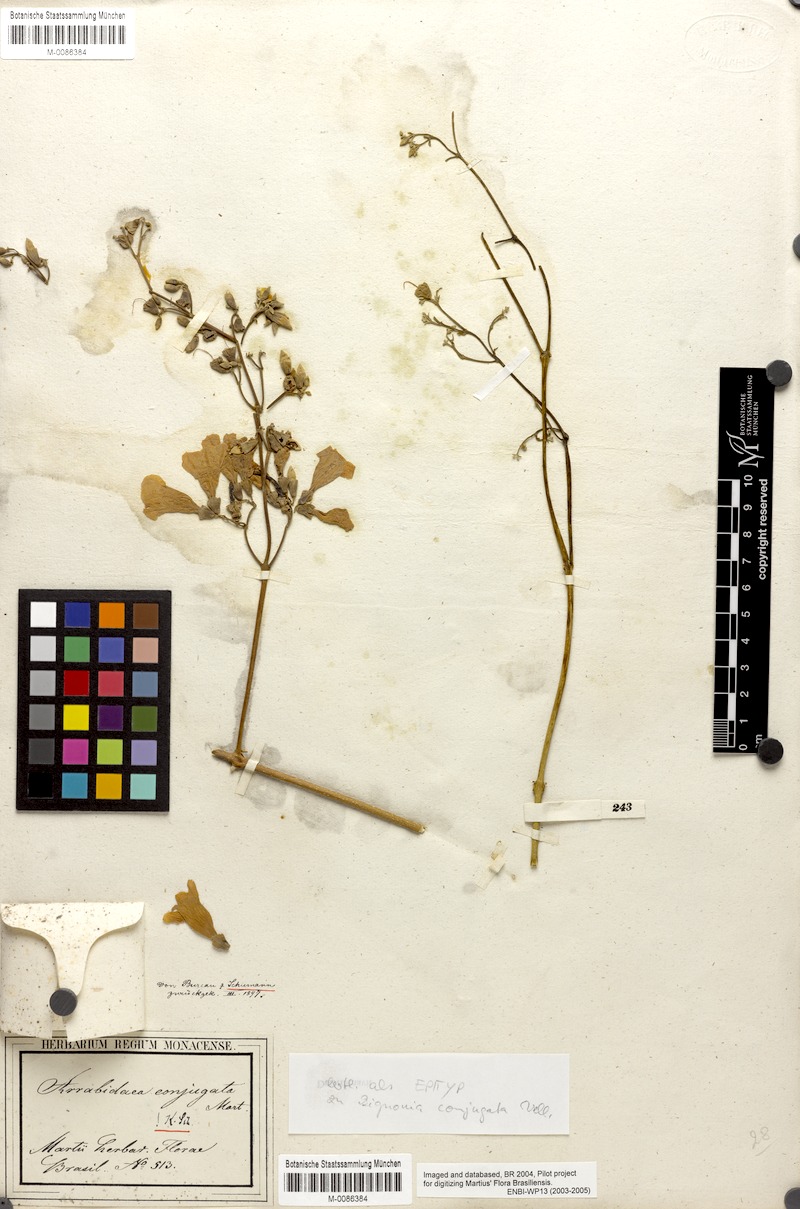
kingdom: Plantae
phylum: Tracheophyta
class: Magnoliopsida
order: Lamiales
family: Bignoniaceae
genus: Fridericia
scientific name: Fridericia conjugata
